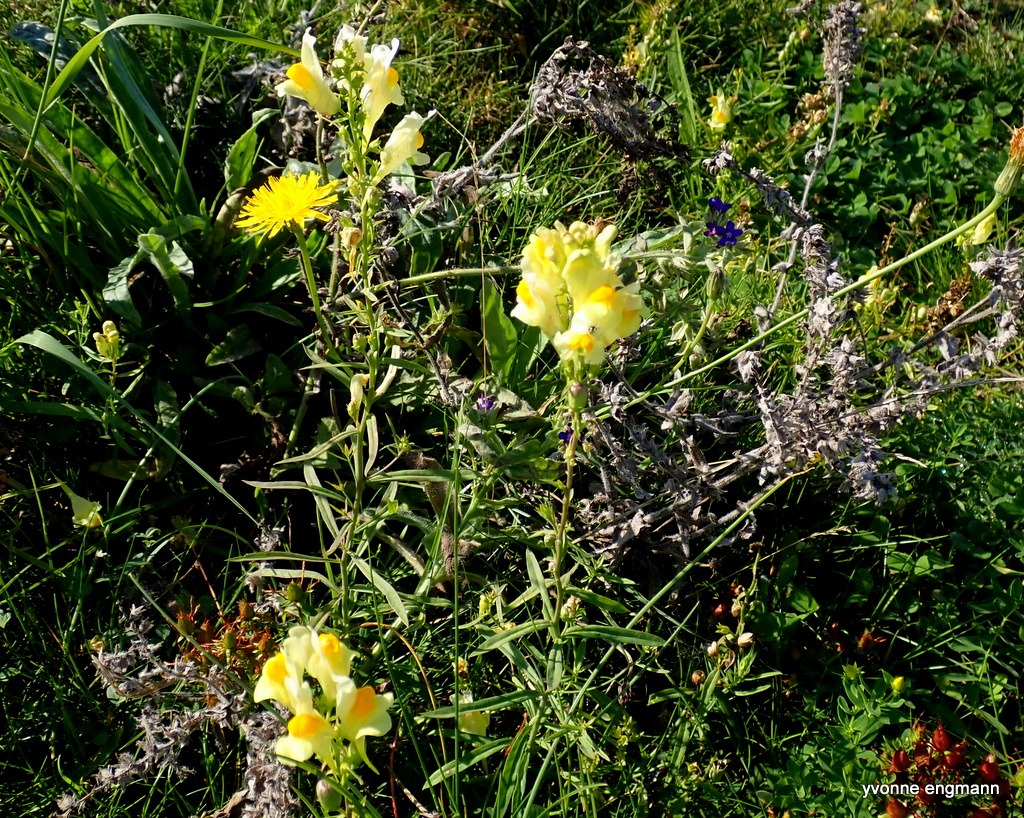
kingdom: Plantae
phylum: Tracheophyta
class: Magnoliopsida
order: Lamiales
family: Plantaginaceae
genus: Linaria
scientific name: Linaria vulgaris
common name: Almindelig torskemund
